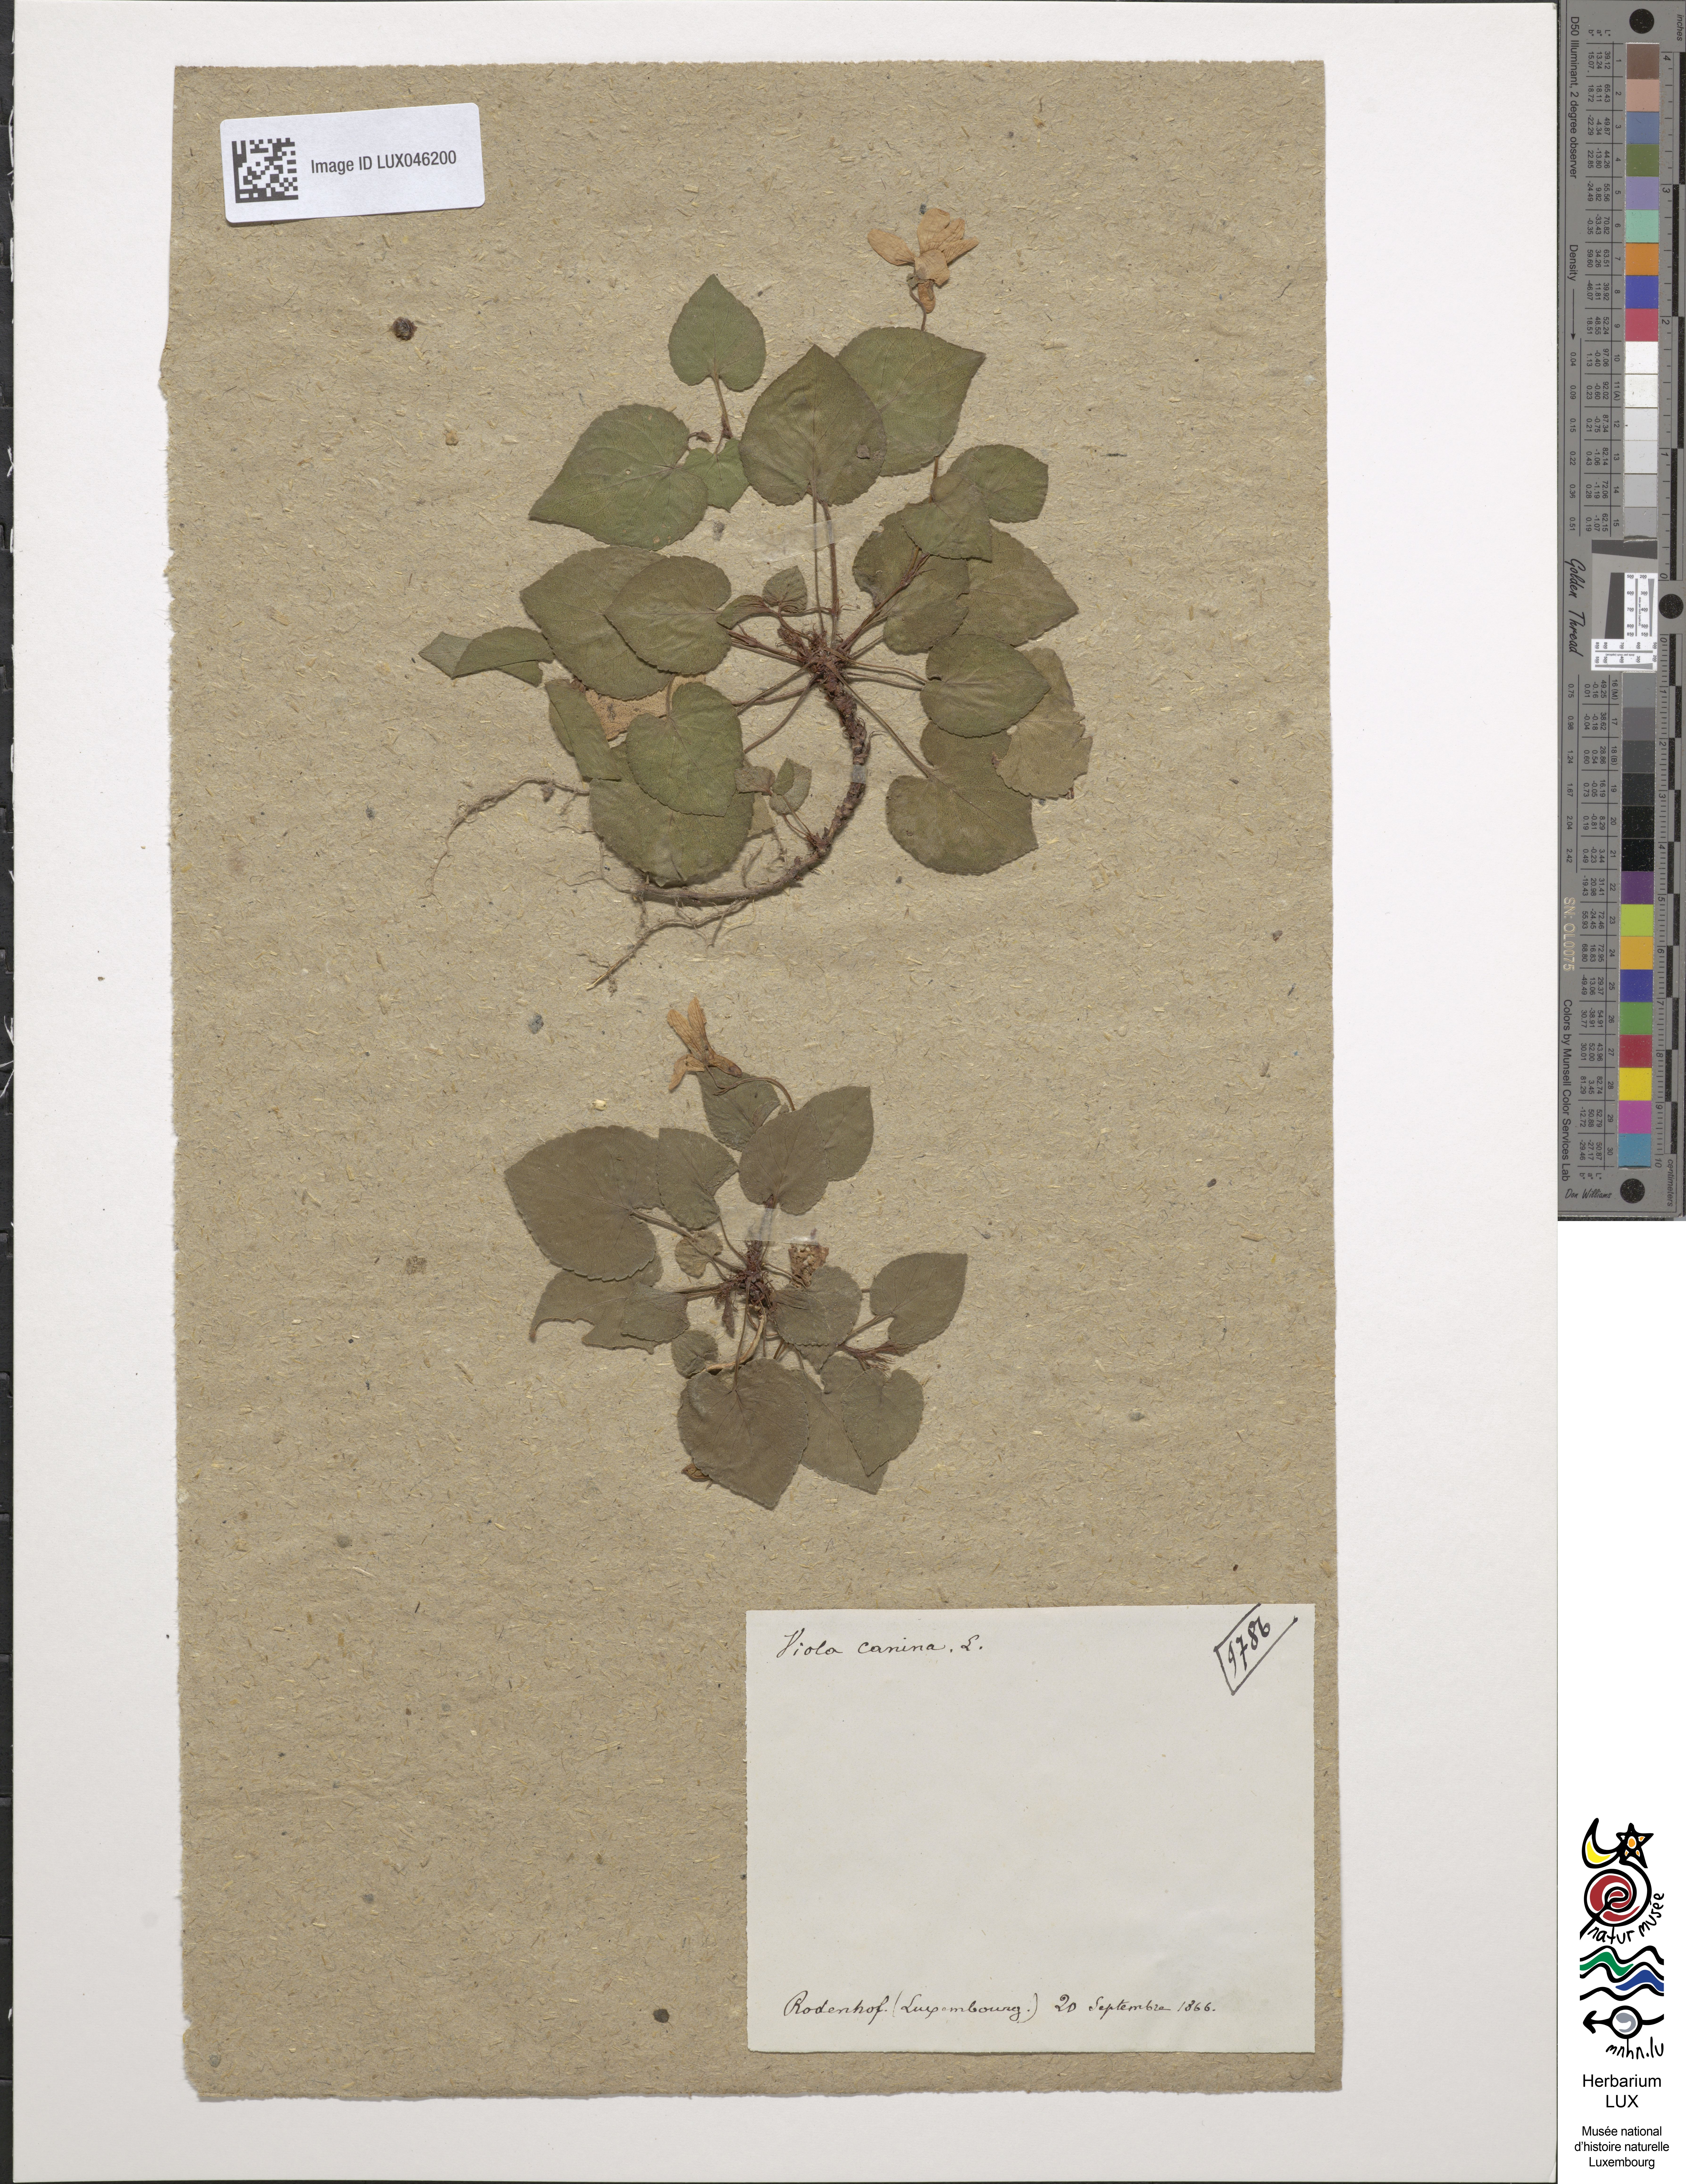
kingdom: Plantae
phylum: Tracheophyta
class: Magnoliopsida
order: Malpighiales
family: Violaceae
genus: Viola
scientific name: Viola canina
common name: Heath dog-violet
